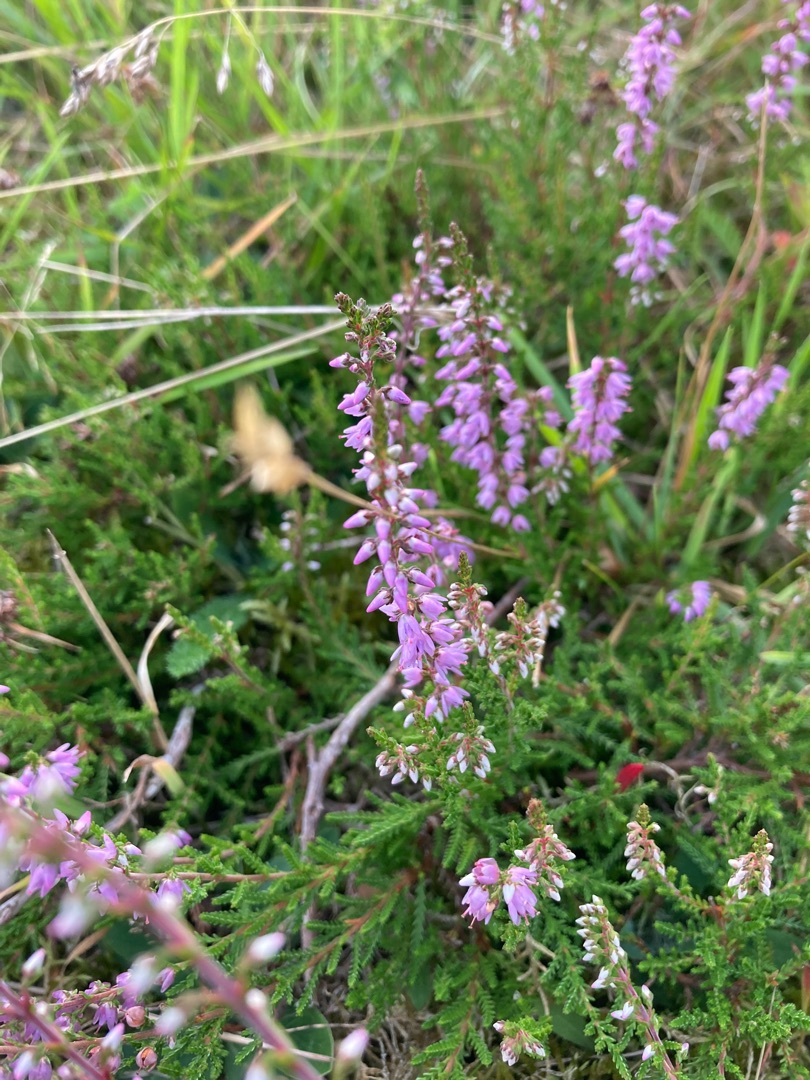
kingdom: Plantae
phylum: Tracheophyta
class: Magnoliopsida
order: Ericales
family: Ericaceae
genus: Calluna
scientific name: Calluna vulgaris
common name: Hedelyng
